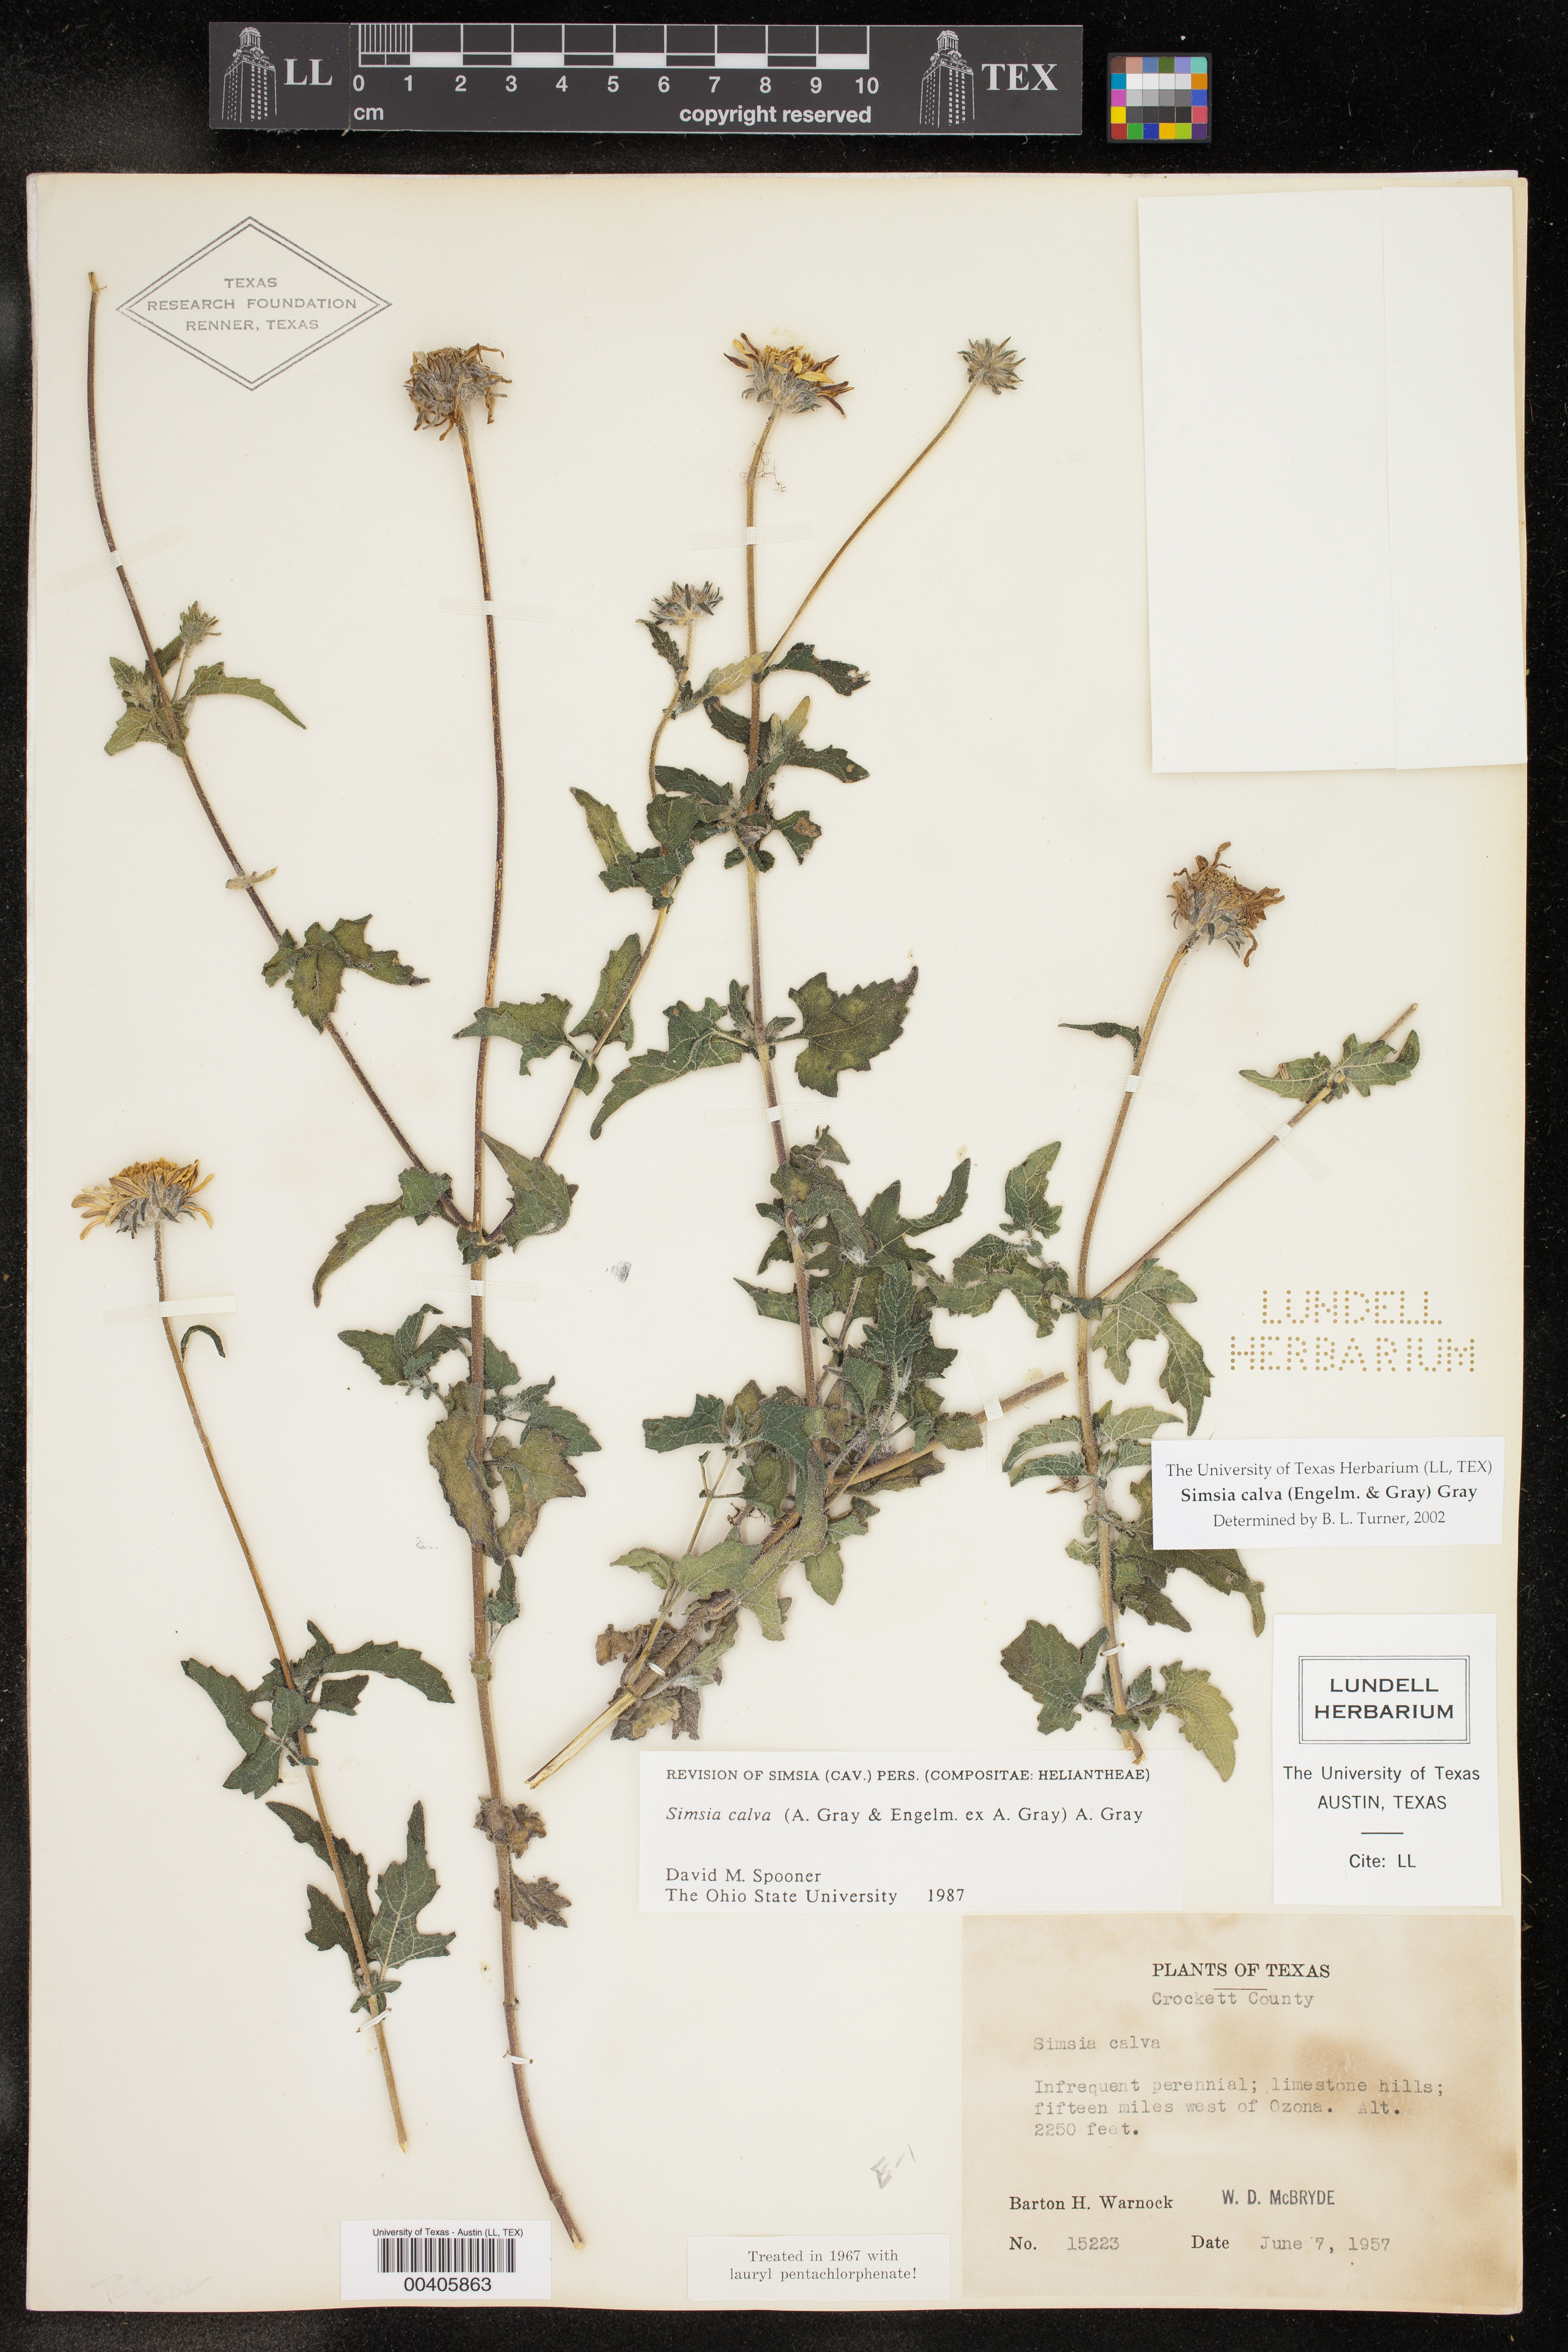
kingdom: Plantae
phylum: Tracheophyta
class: Magnoliopsida
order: Asterales
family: Asteraceae
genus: Simsia
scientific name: Simsia calva
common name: Awnless bush-sunflower
